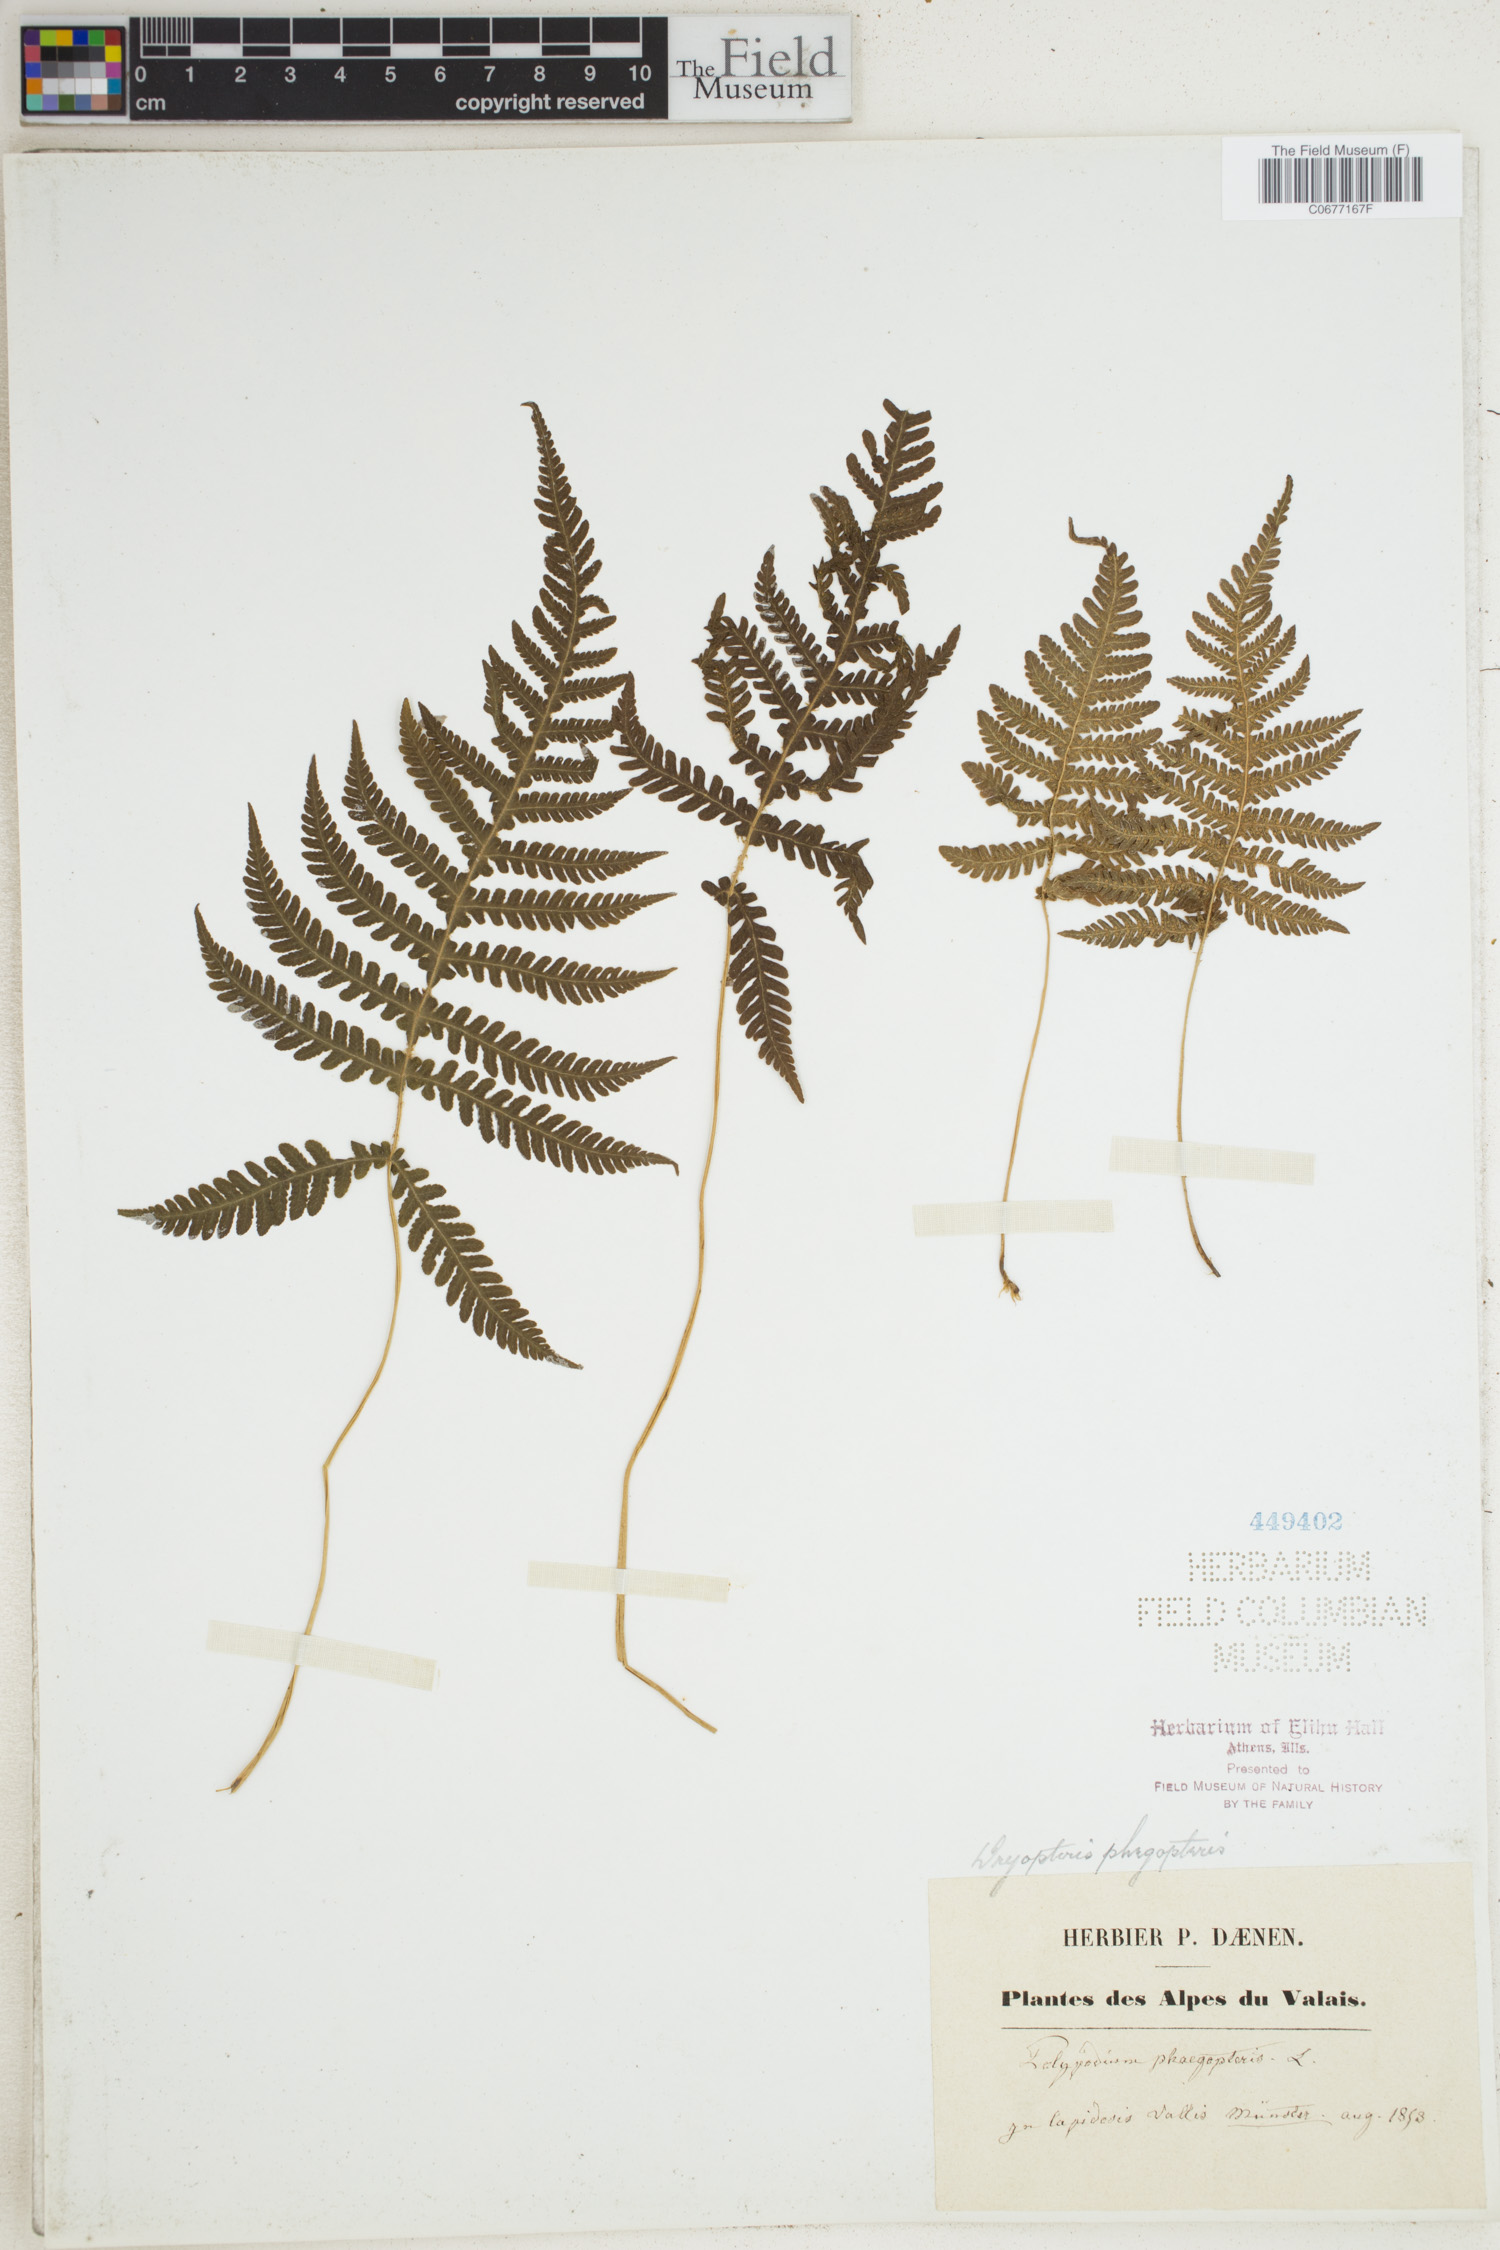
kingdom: Plantae
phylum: Tracheophyta
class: Polypodiopsida
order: Polypodiales
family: Thelypteridaceae
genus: Phegopteris
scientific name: Phegopteris connectilis
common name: Beech fern
